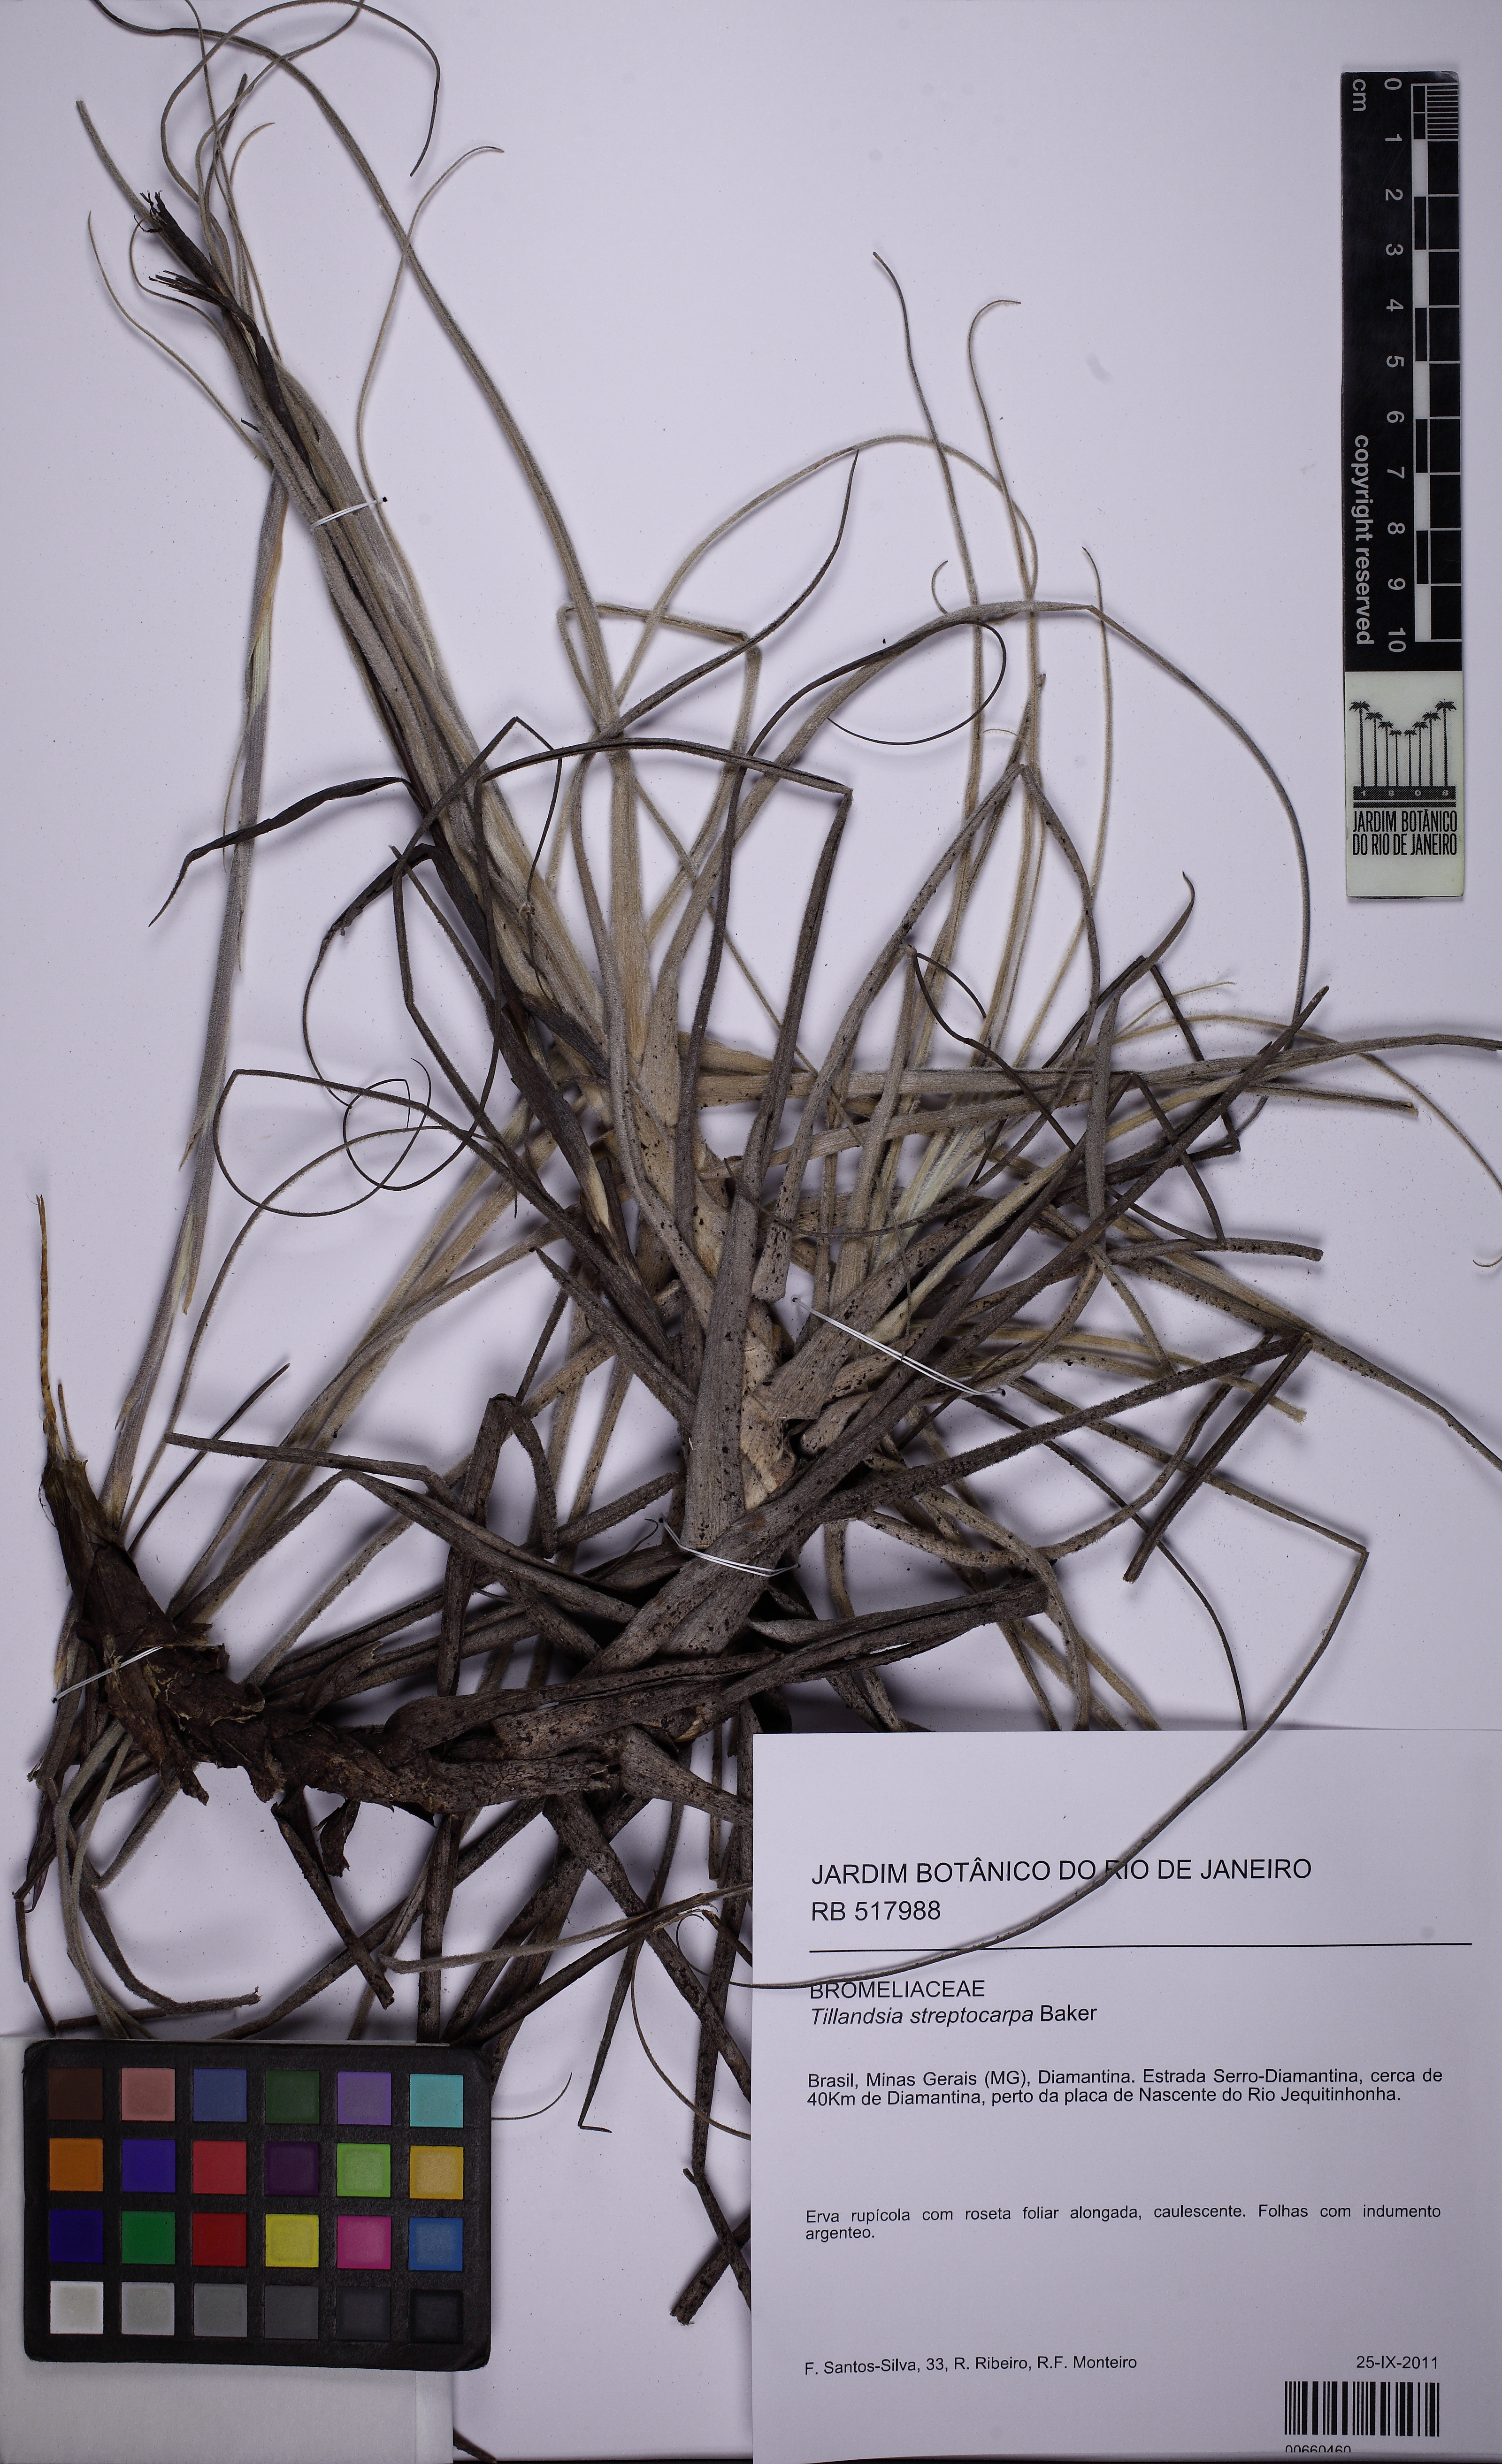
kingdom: Plantae
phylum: Tracheophyta
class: Liliopsida
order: Poales
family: Bromeliaceae
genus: Tillandsia
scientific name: Tillandsia streptocarpa
